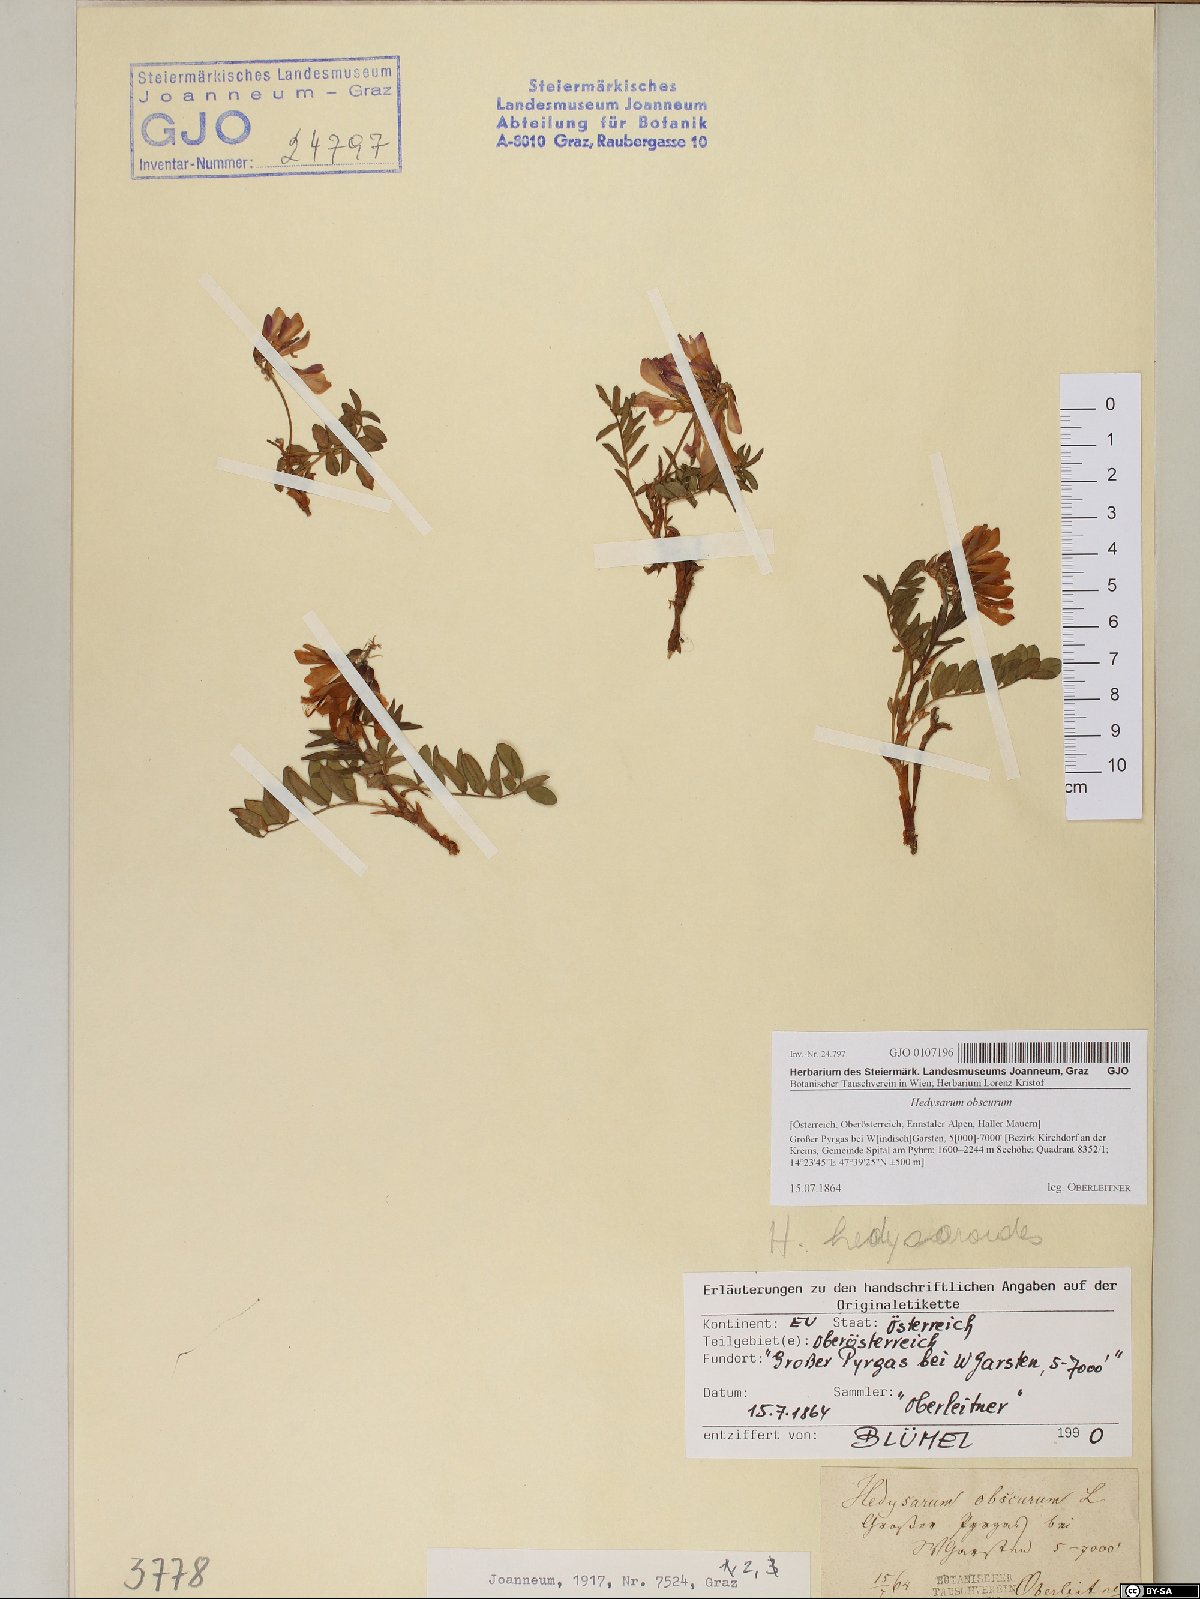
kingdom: Plantae
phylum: Tracheophyta
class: Magnoliopsida
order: Fabales
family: Fabaceae
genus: Hedysarum
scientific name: Hedysarum hedysaroides
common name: Alpine french-honeysuckle
